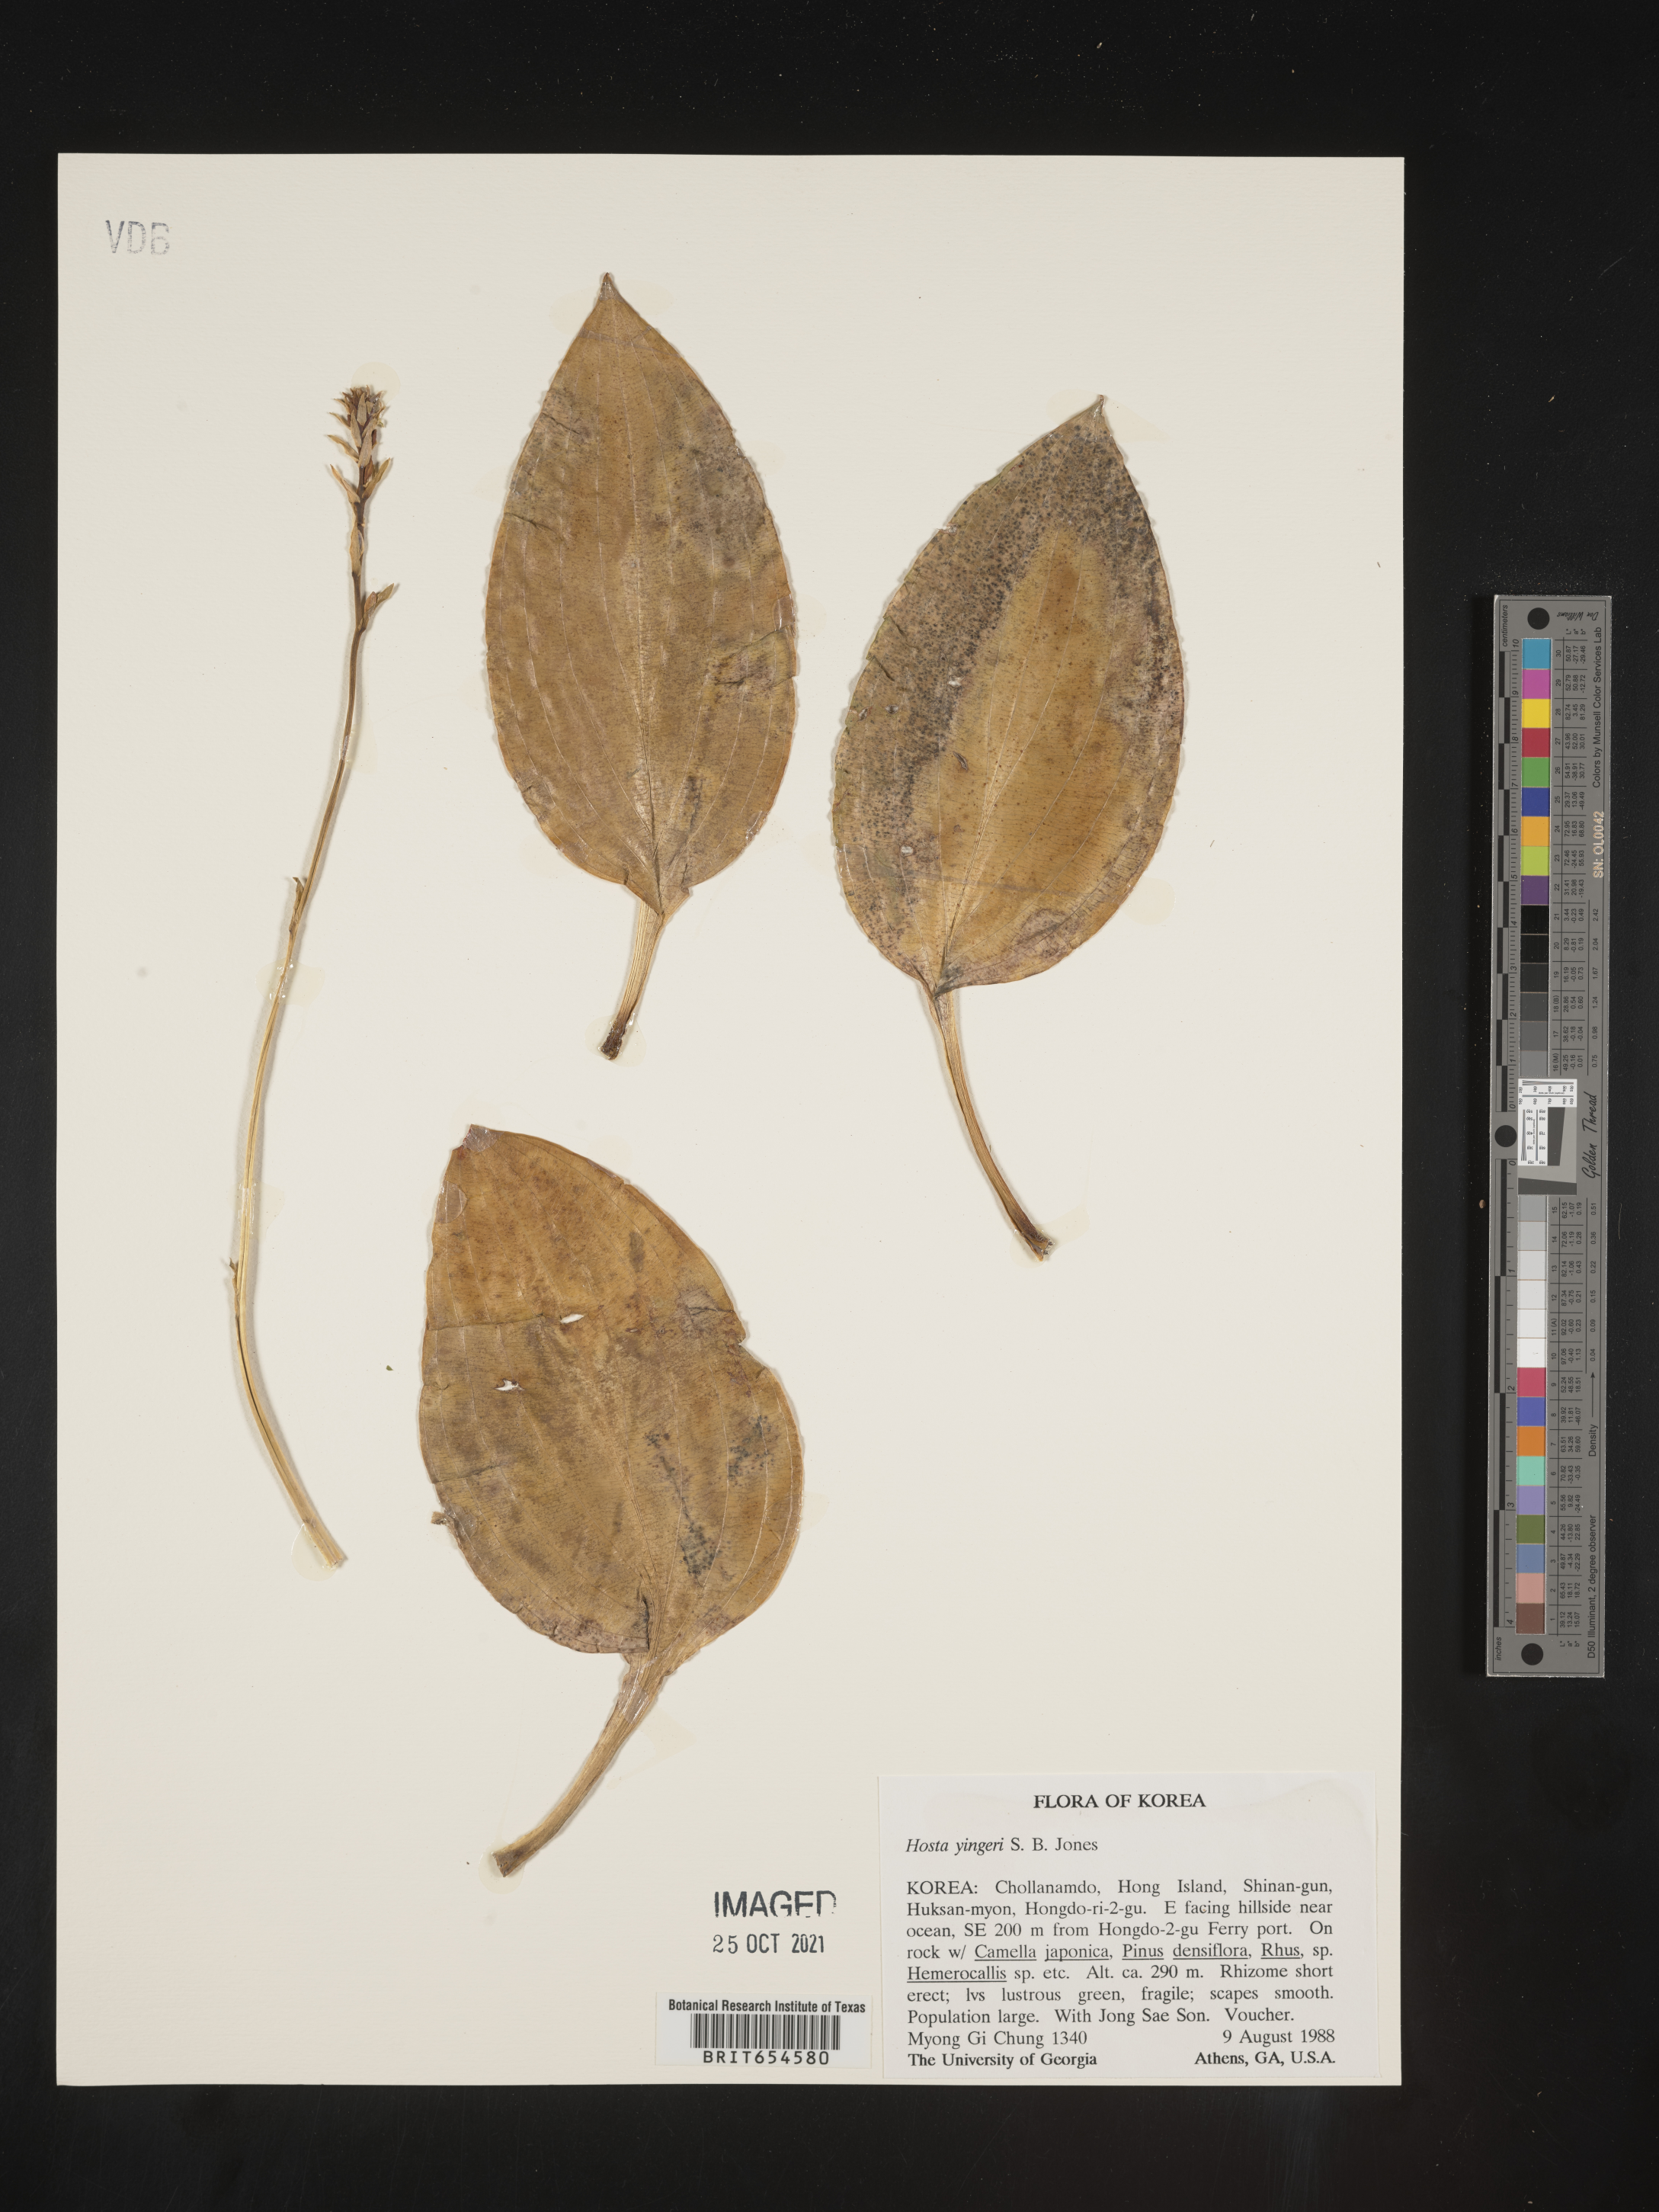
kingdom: Plantae
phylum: Tracheophyta
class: Liliopsida
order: Asparagales
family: Asparagaceae
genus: Hosta
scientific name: Hosta yingeri
